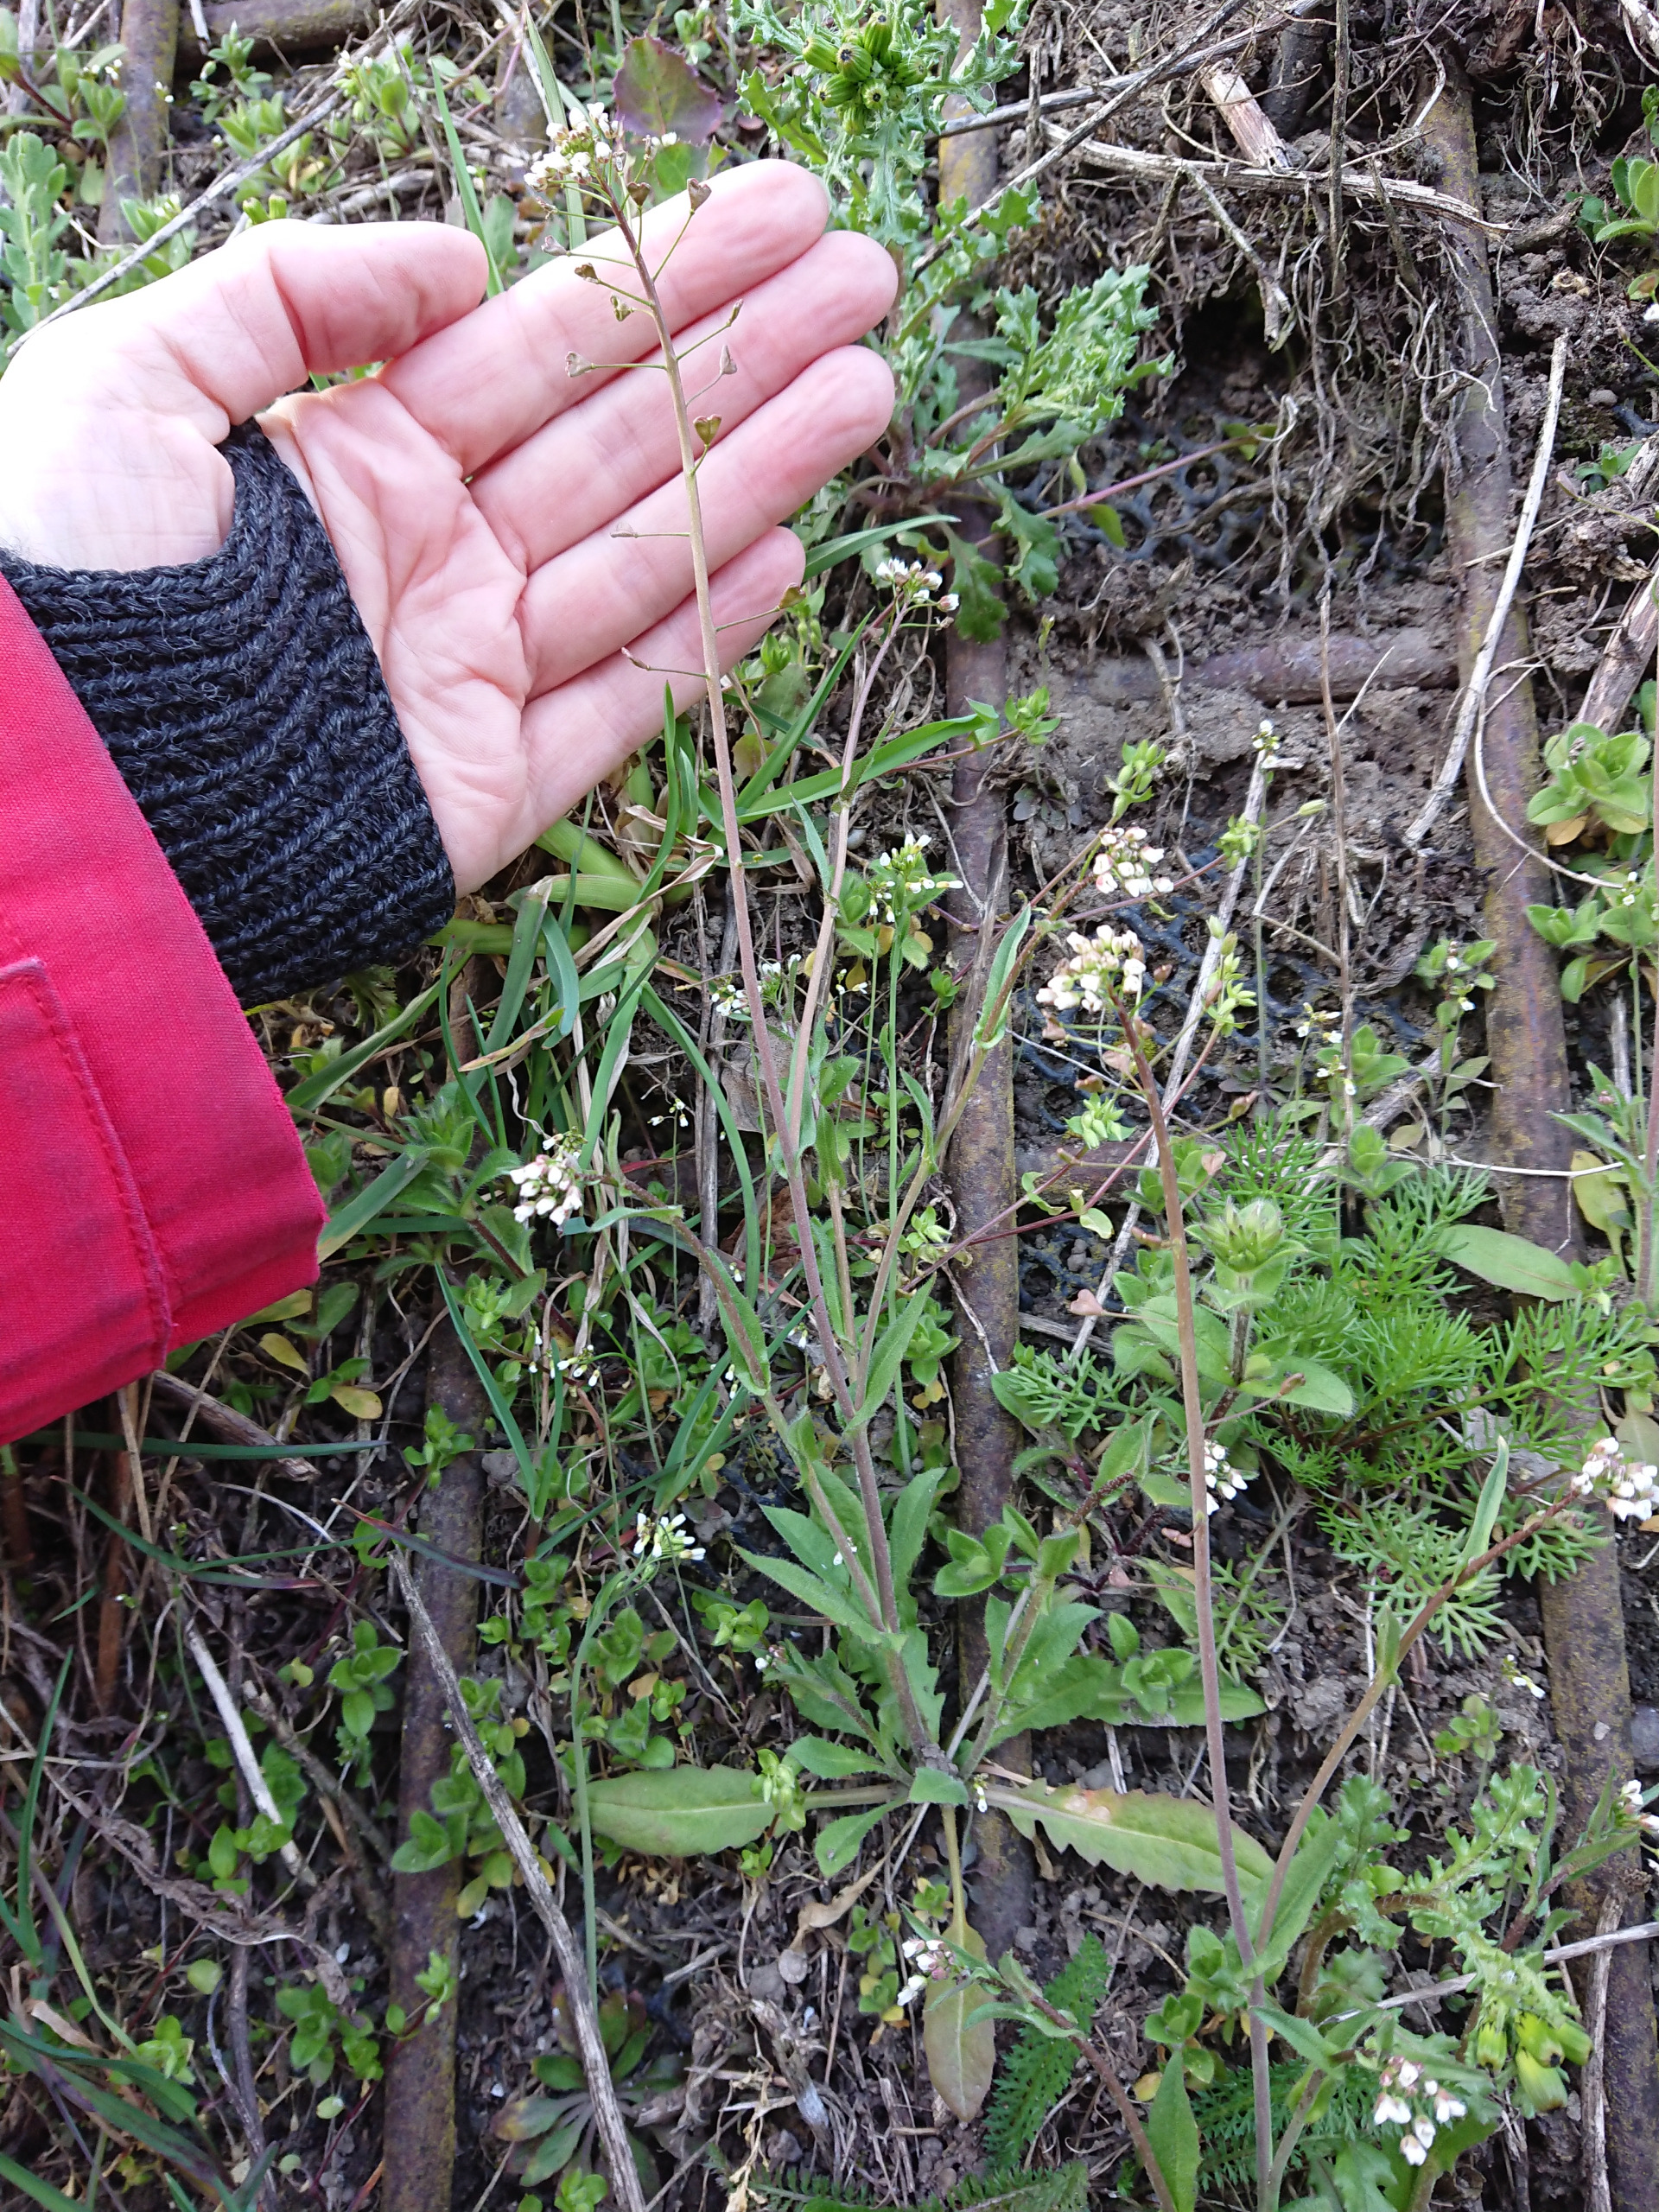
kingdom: Plantae
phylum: Tracheophyta
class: Magnoliopsida
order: Brassicales
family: Brassicaceae
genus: Capsella
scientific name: Capsella bursa-pastoris
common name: Hyrdetaske
